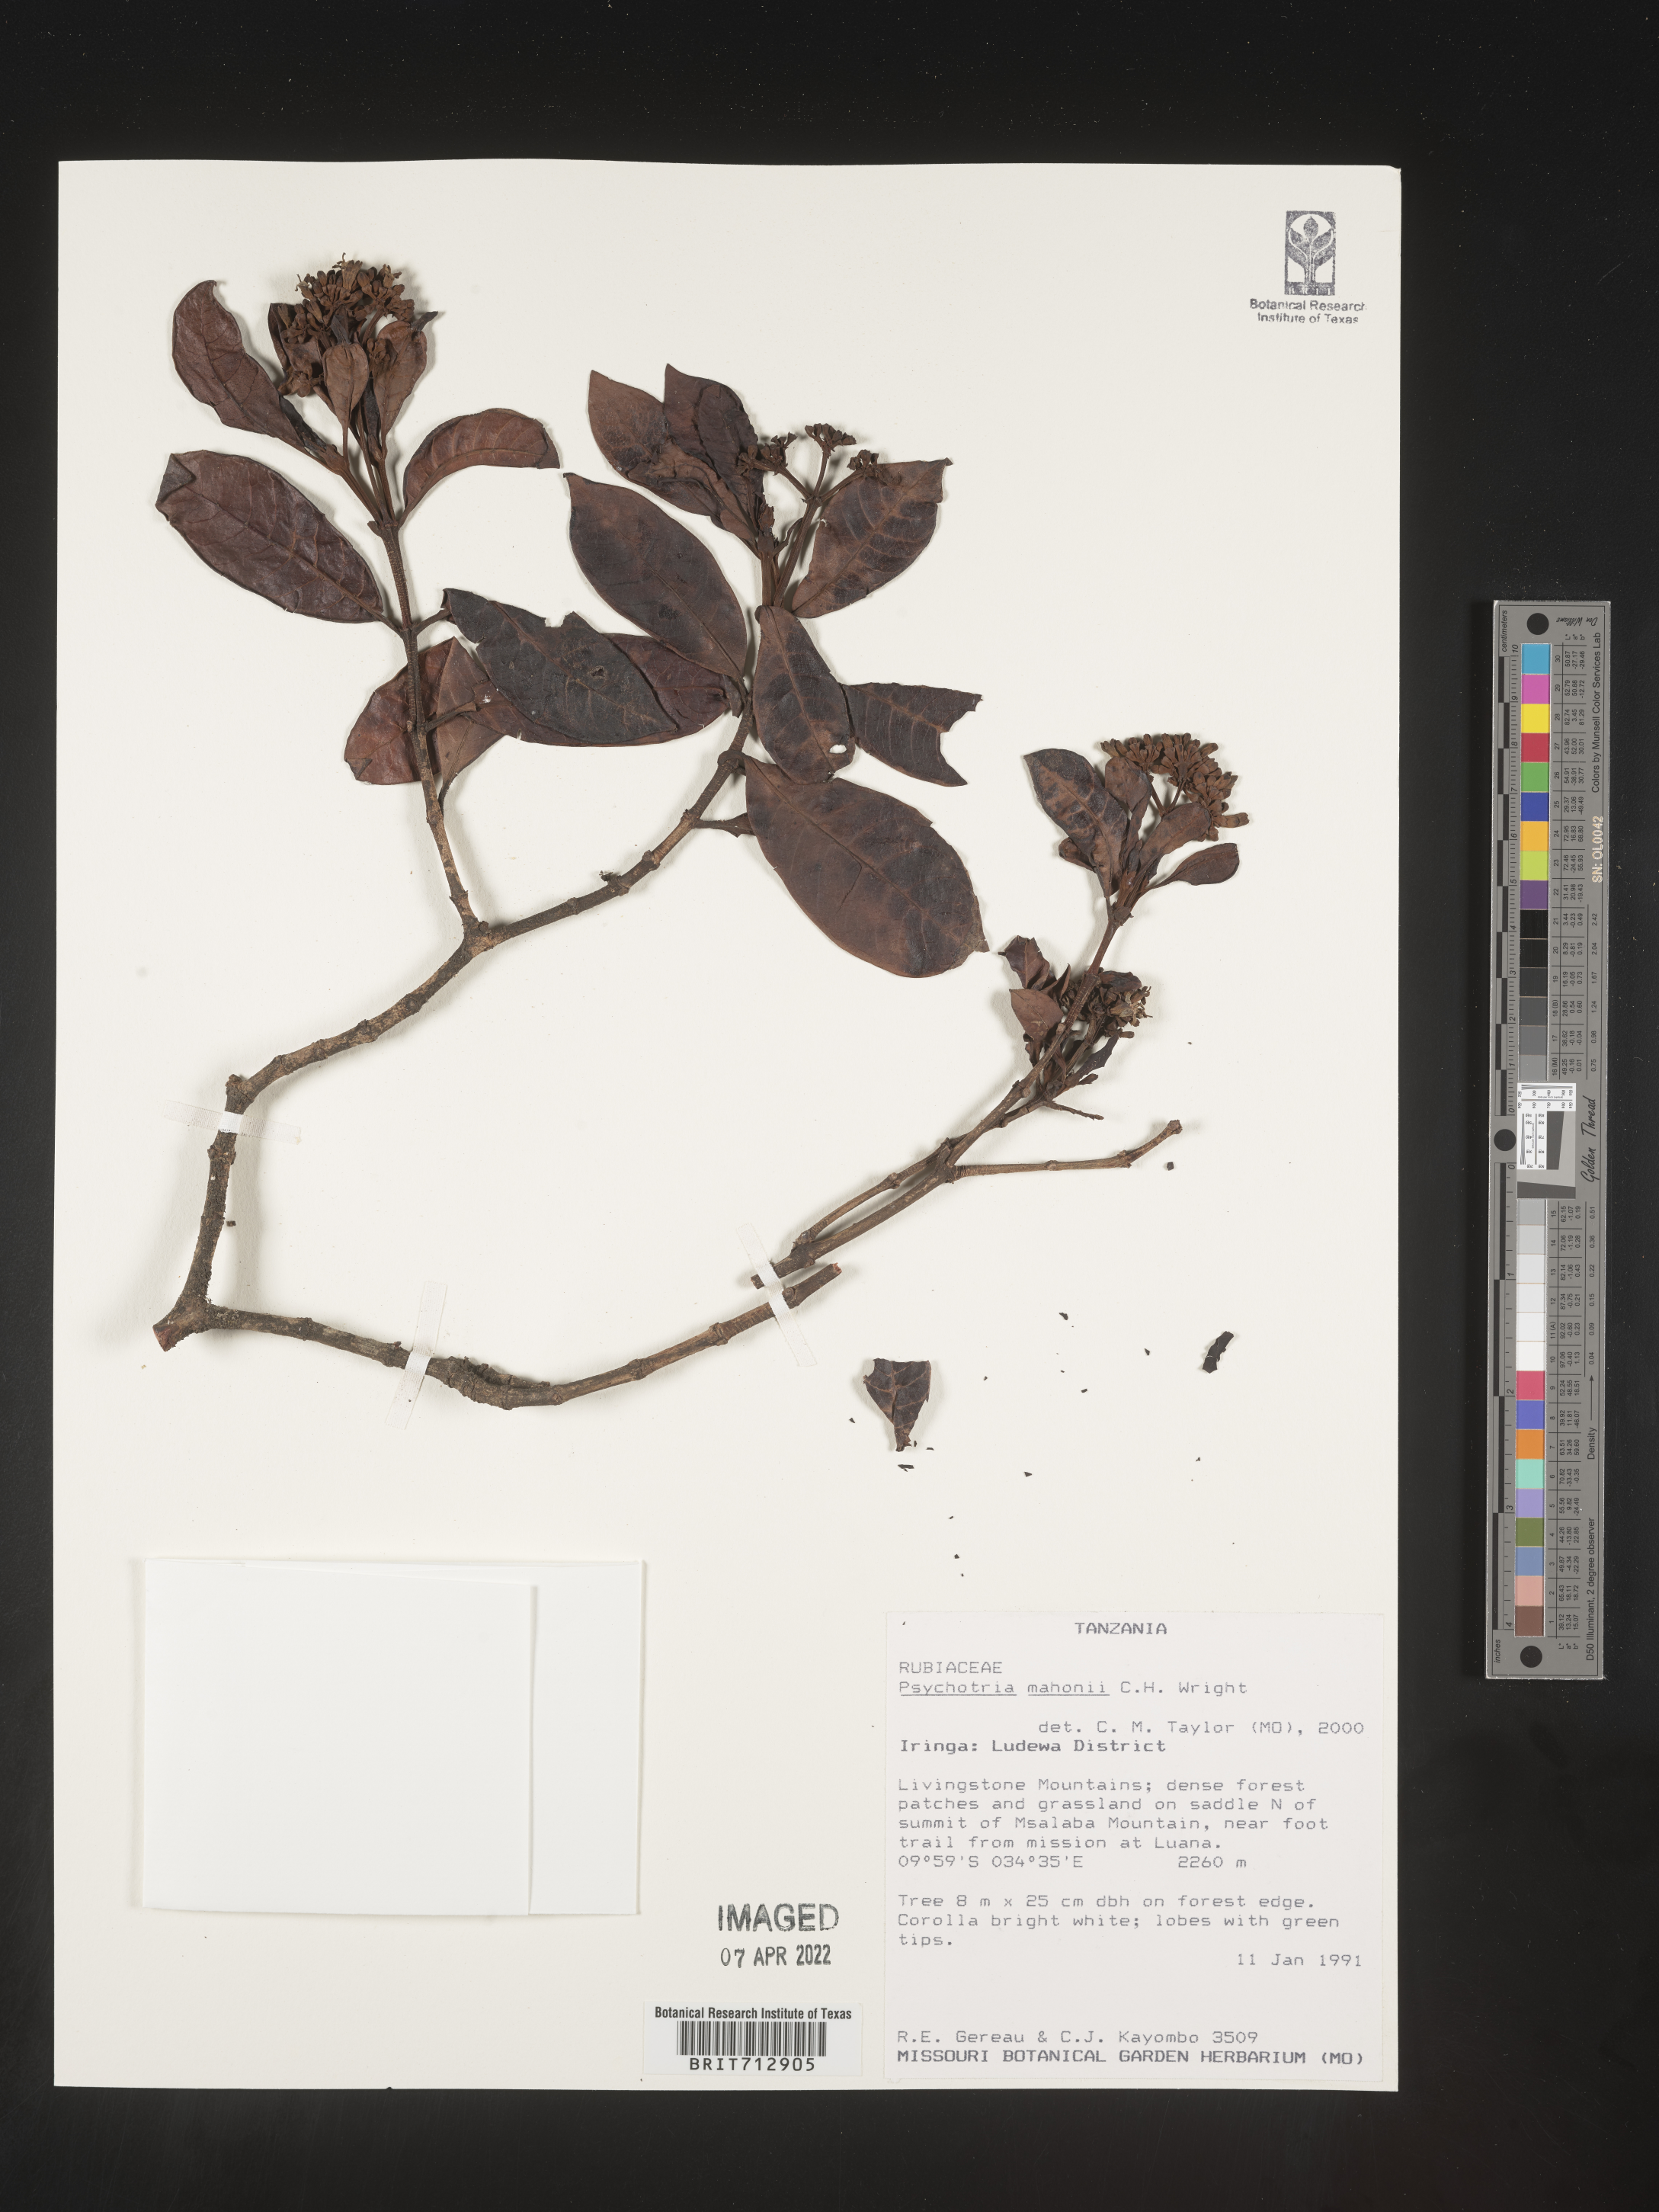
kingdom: Plantae
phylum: Tracheophyta
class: Magnoliopsida
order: Gentianales
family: Rubiaceae
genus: Psychotria
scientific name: Psychotria mahonii
